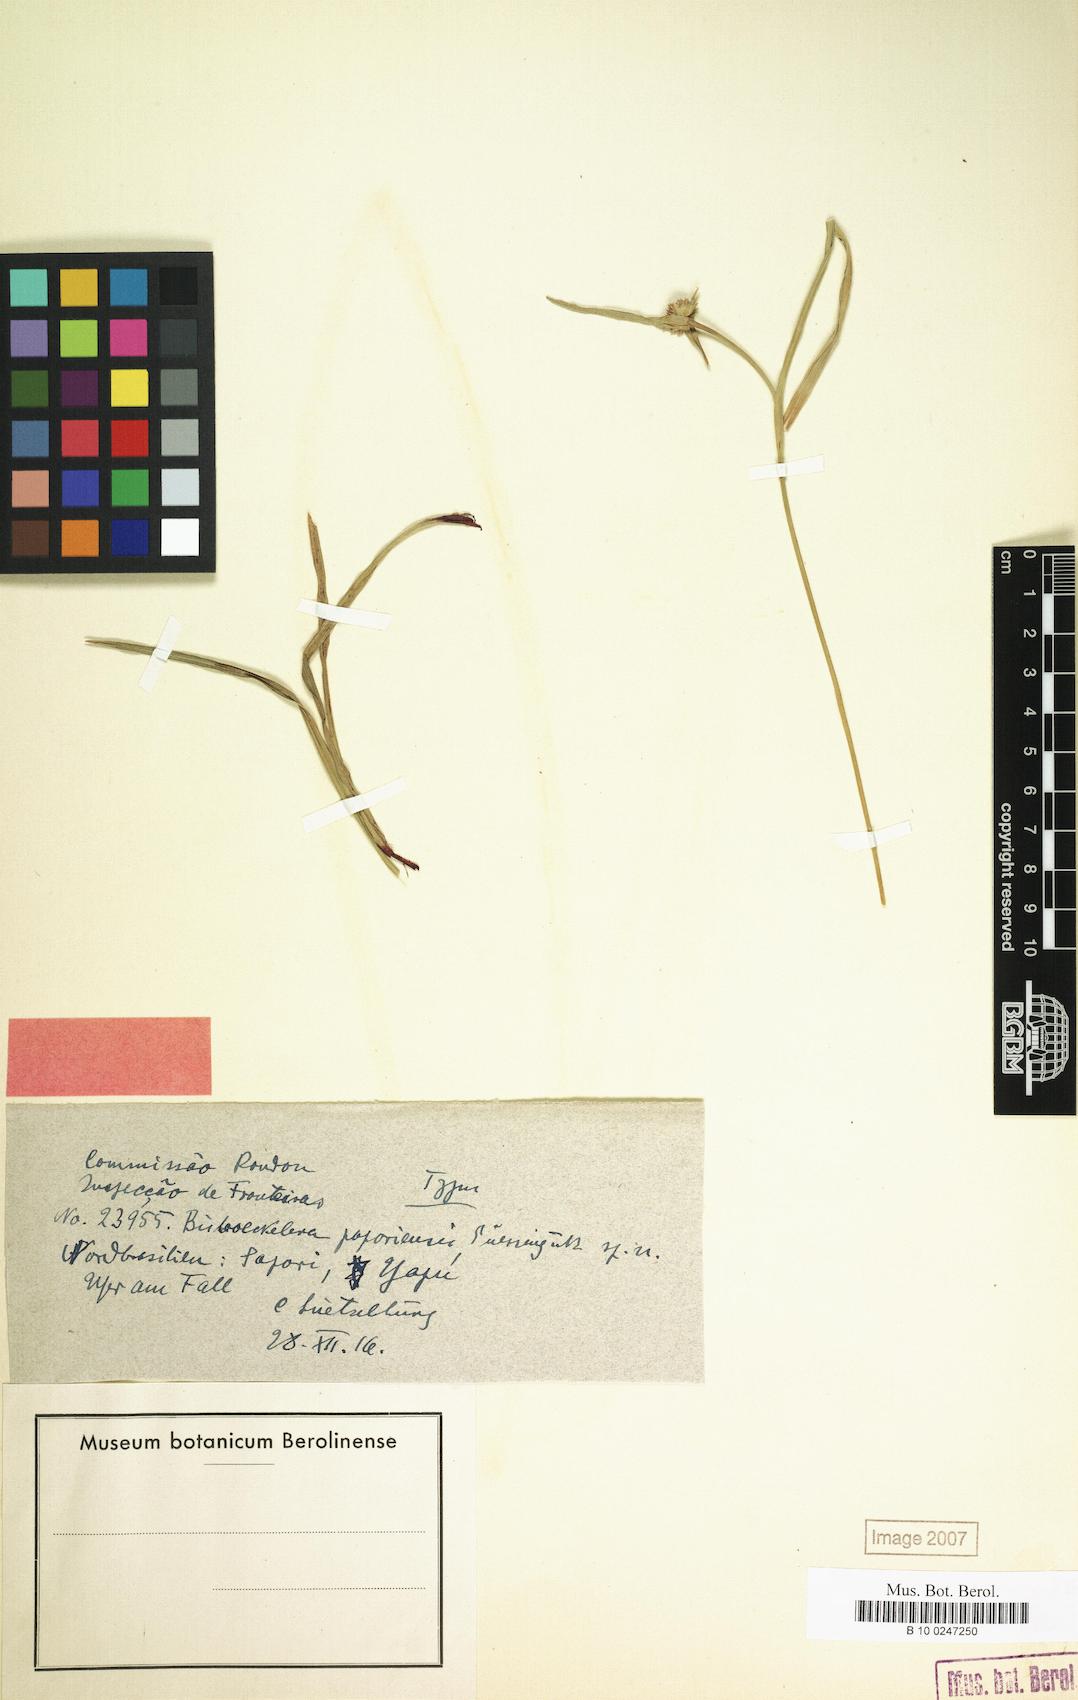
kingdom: Plantae
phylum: Tracheophyta
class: Liliopsida
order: Poales
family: Cyperaceae
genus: Diplacrum
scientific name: Diplacrum capitatum
